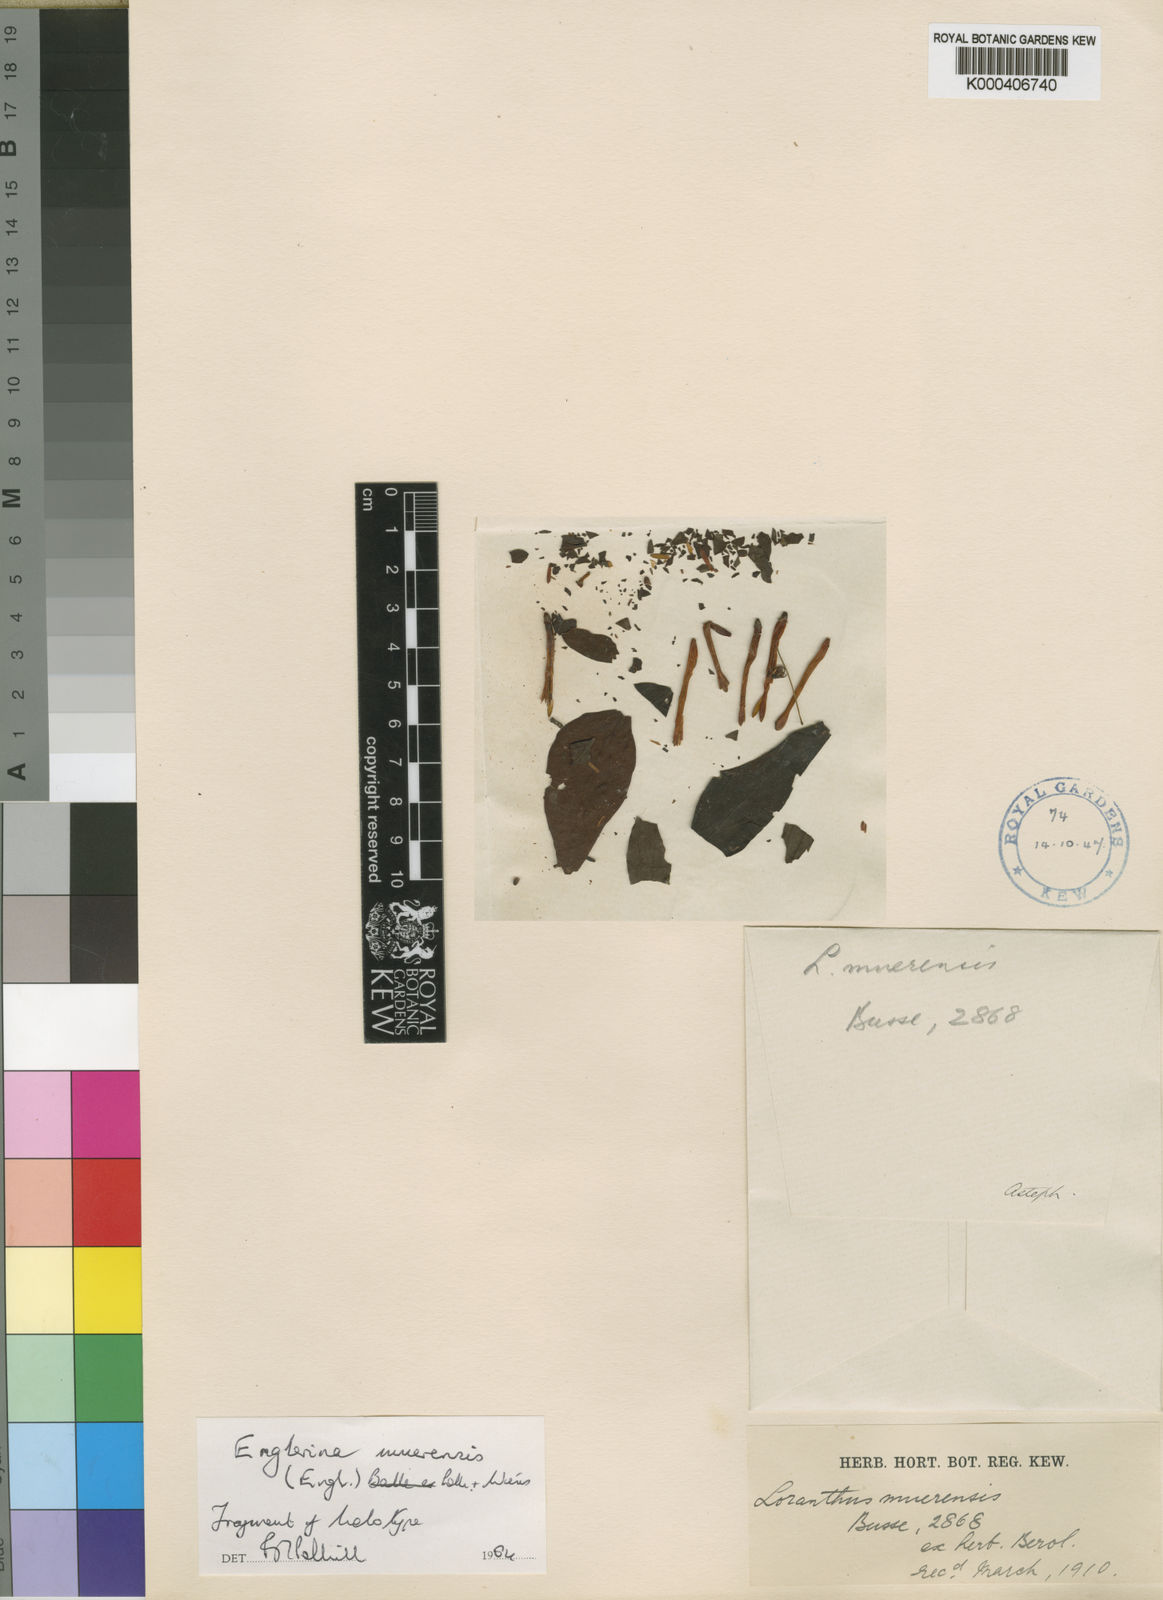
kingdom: Plantae
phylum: Tracheophyta
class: Magnoliopsida
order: Santalales
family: Loranthaceae
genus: Englerina
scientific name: Englerina muerensis
